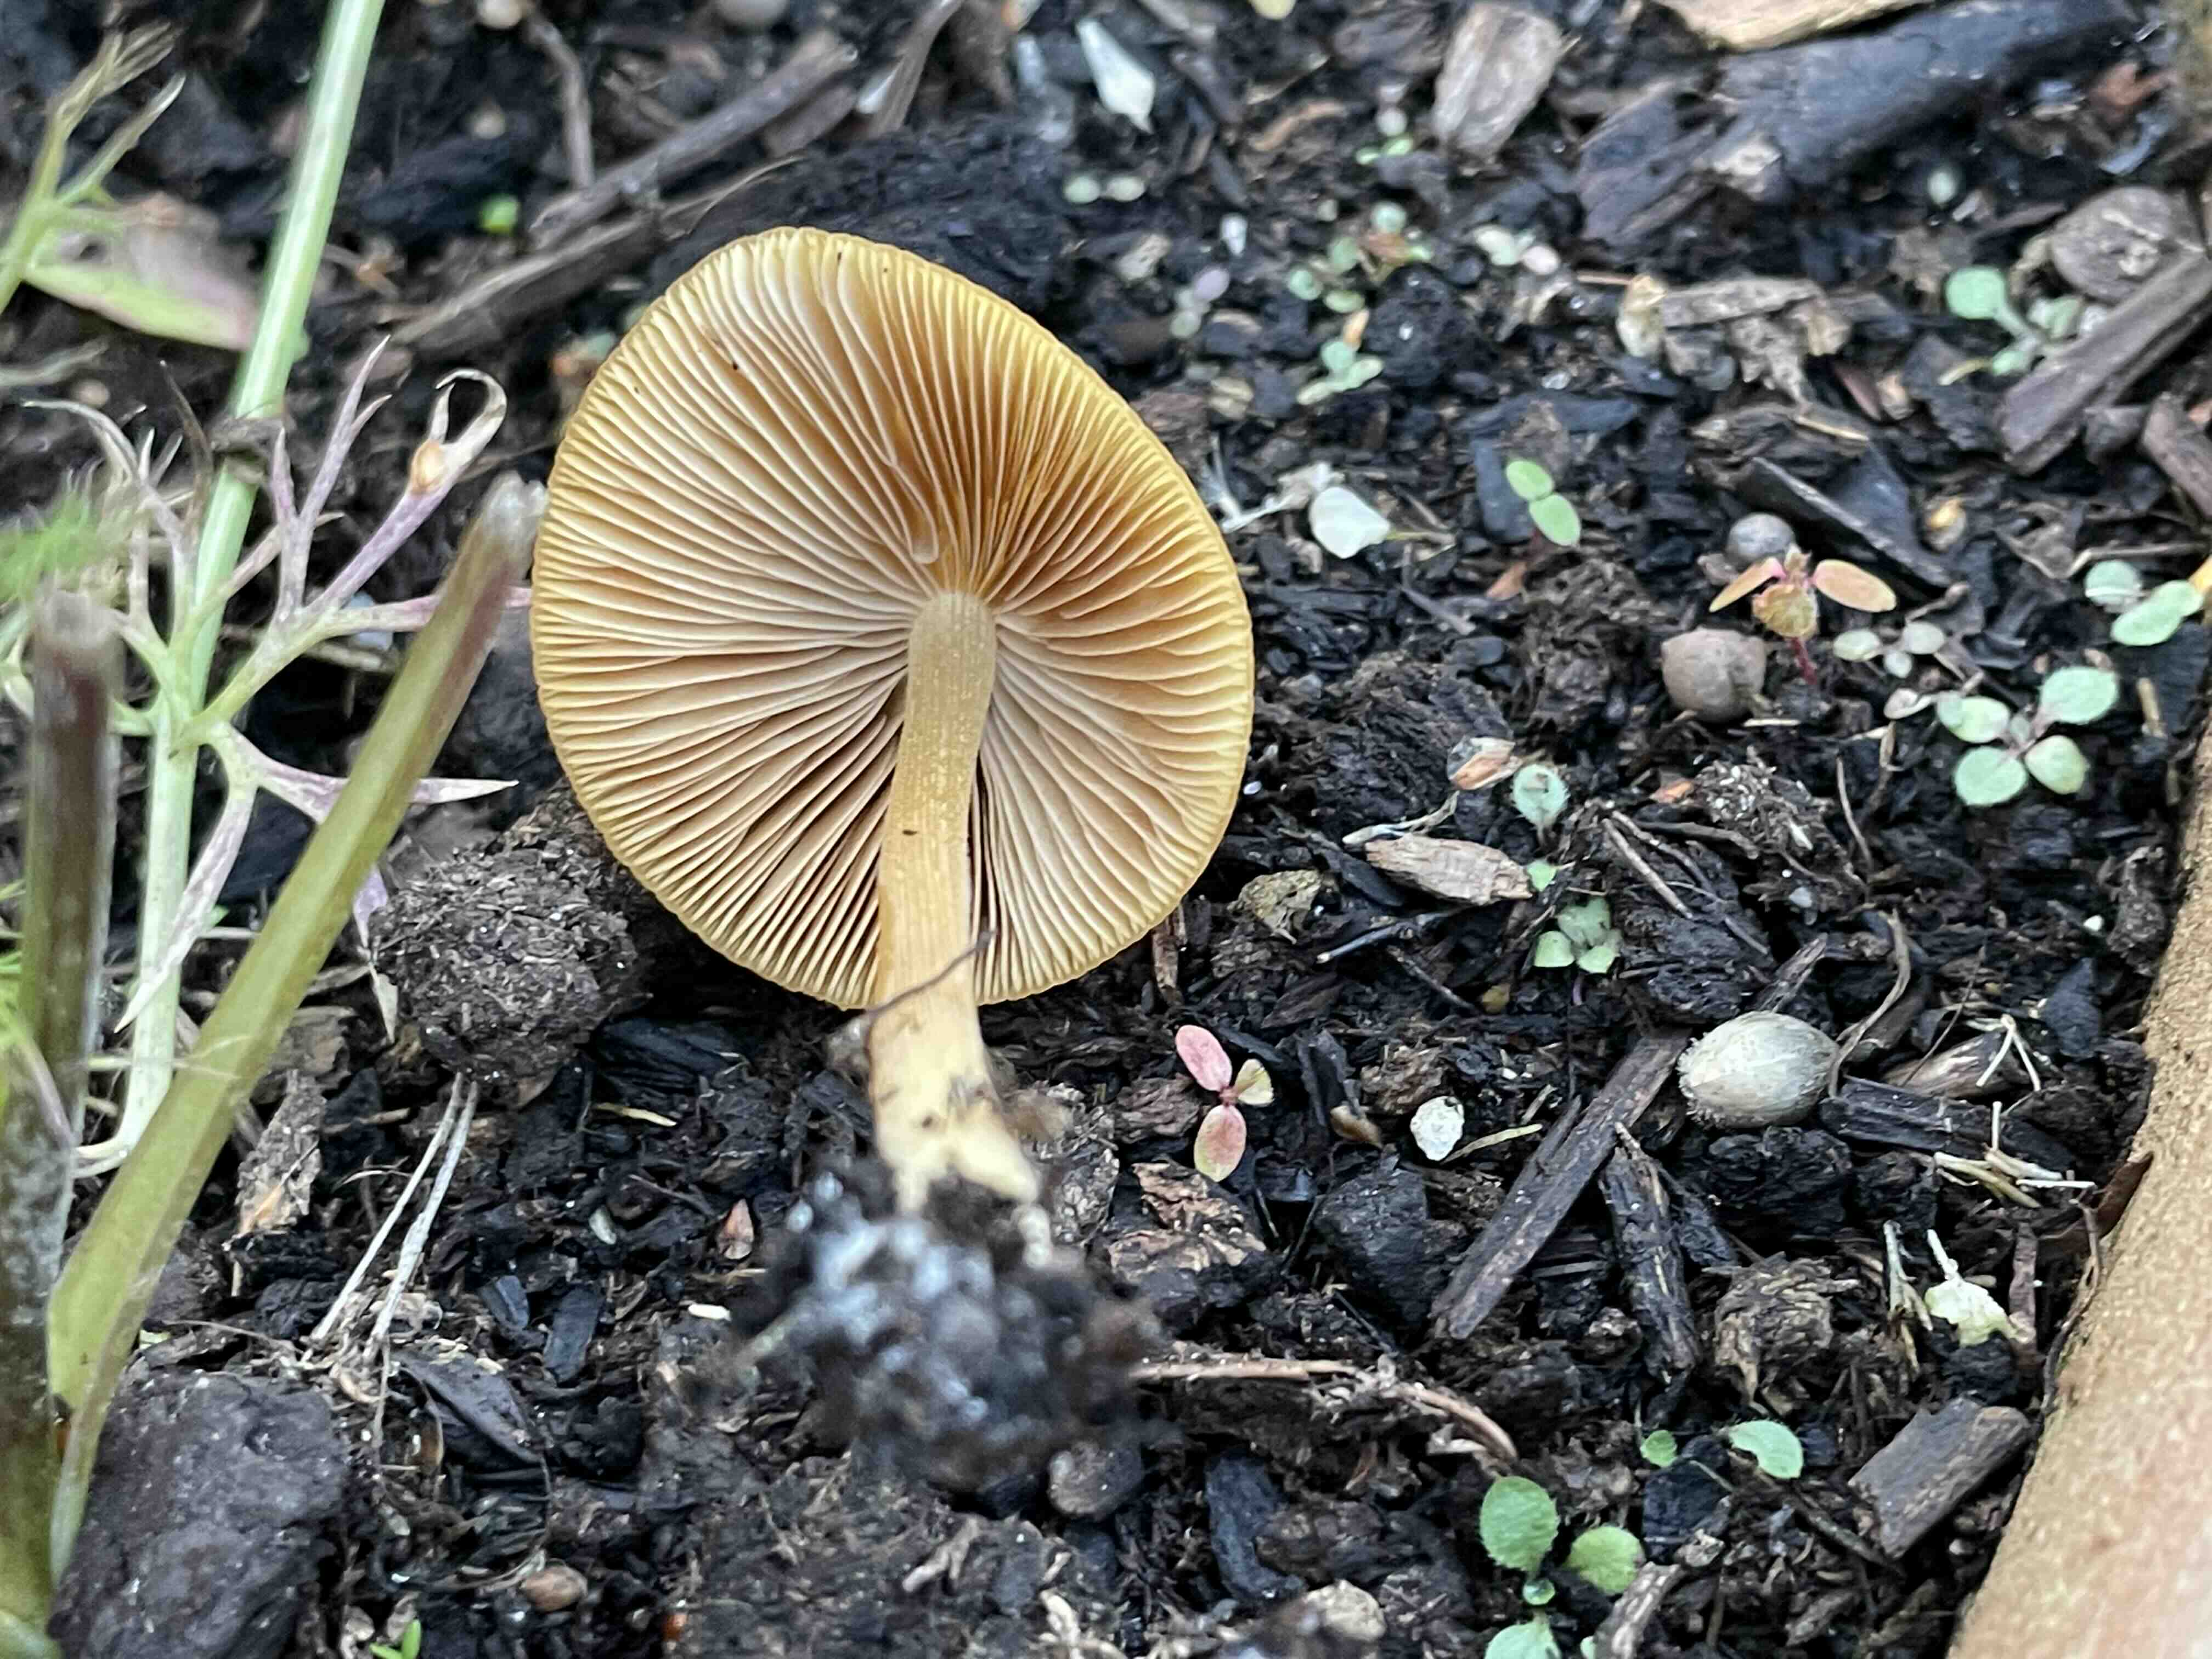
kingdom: Fungi
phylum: Basidiomycota
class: Agaricomycetes
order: Agaricales
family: Bolbitiaceae
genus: Conocybe
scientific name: Conocybe aurea
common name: gylden keglehat
